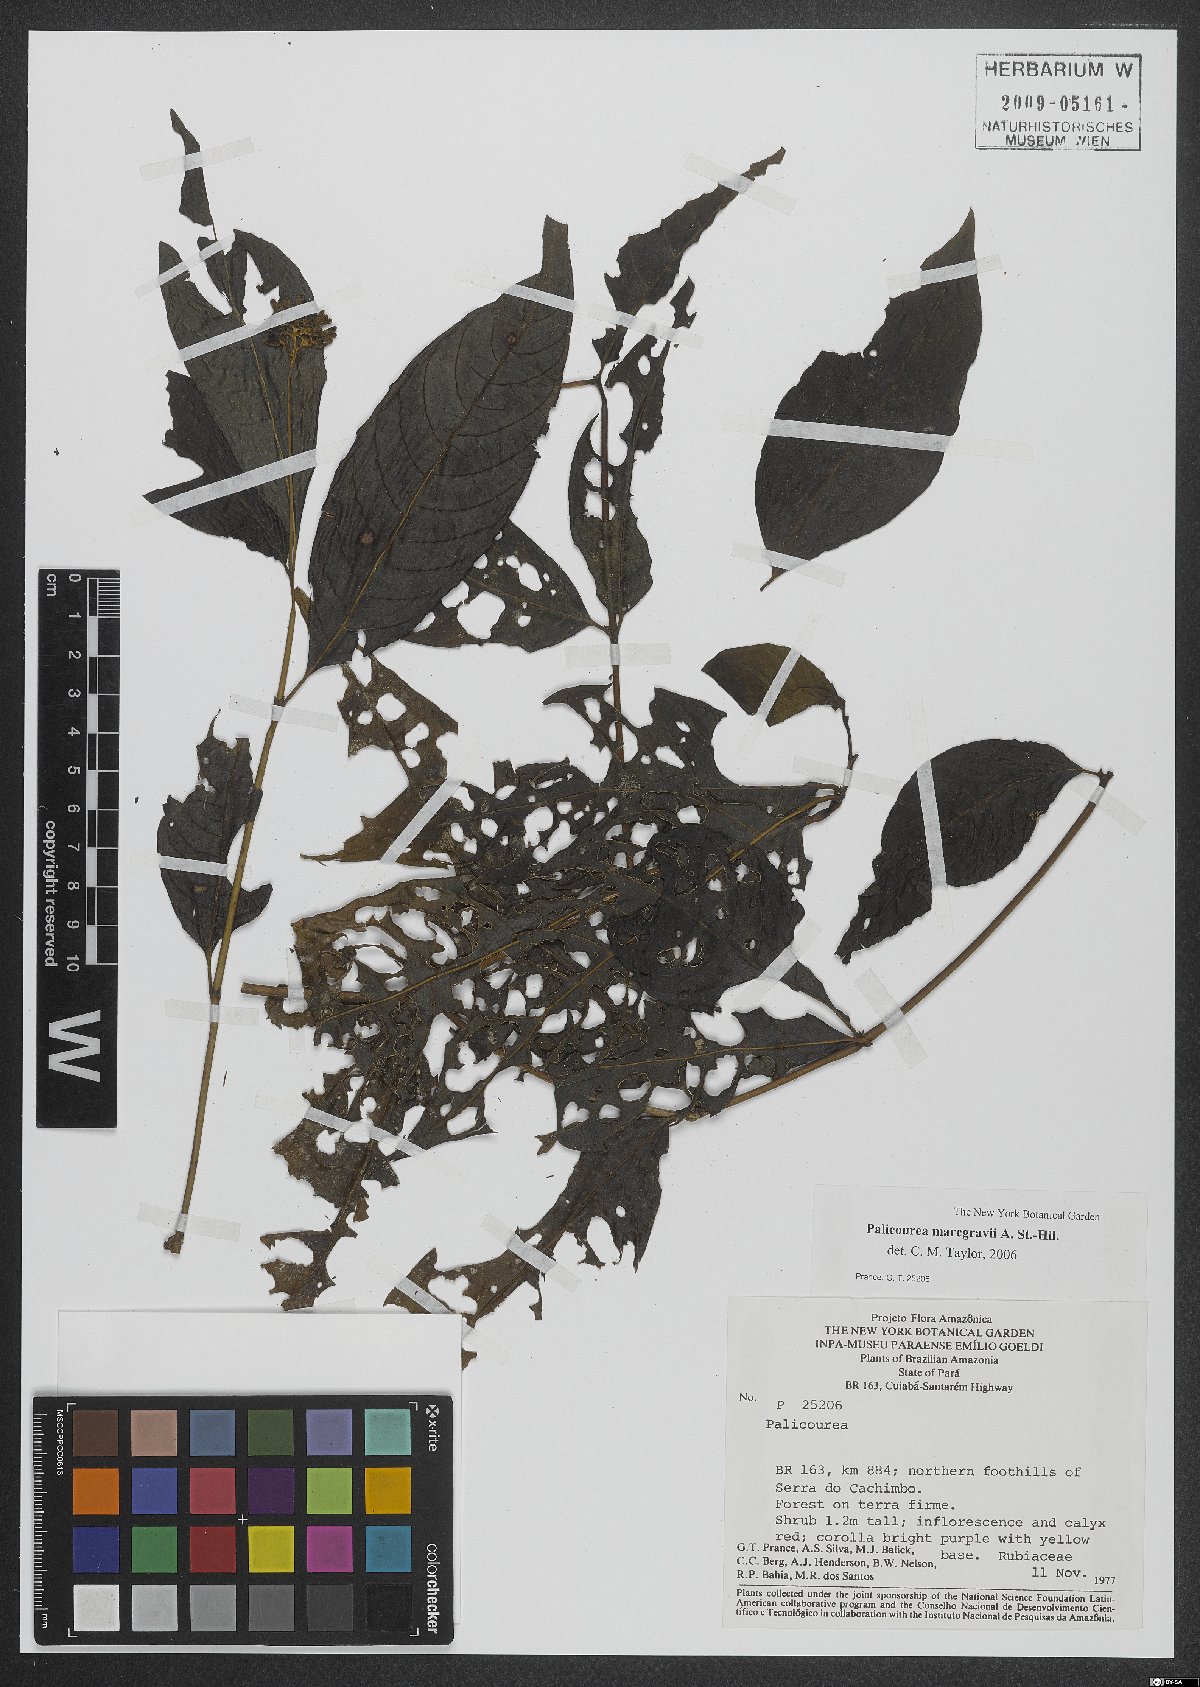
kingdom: Plantae
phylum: Tracheophyta
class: Magnoliopsida
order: Gentianales
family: Rubiaceae
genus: Palicourea
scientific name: Palicourea marcgravii
